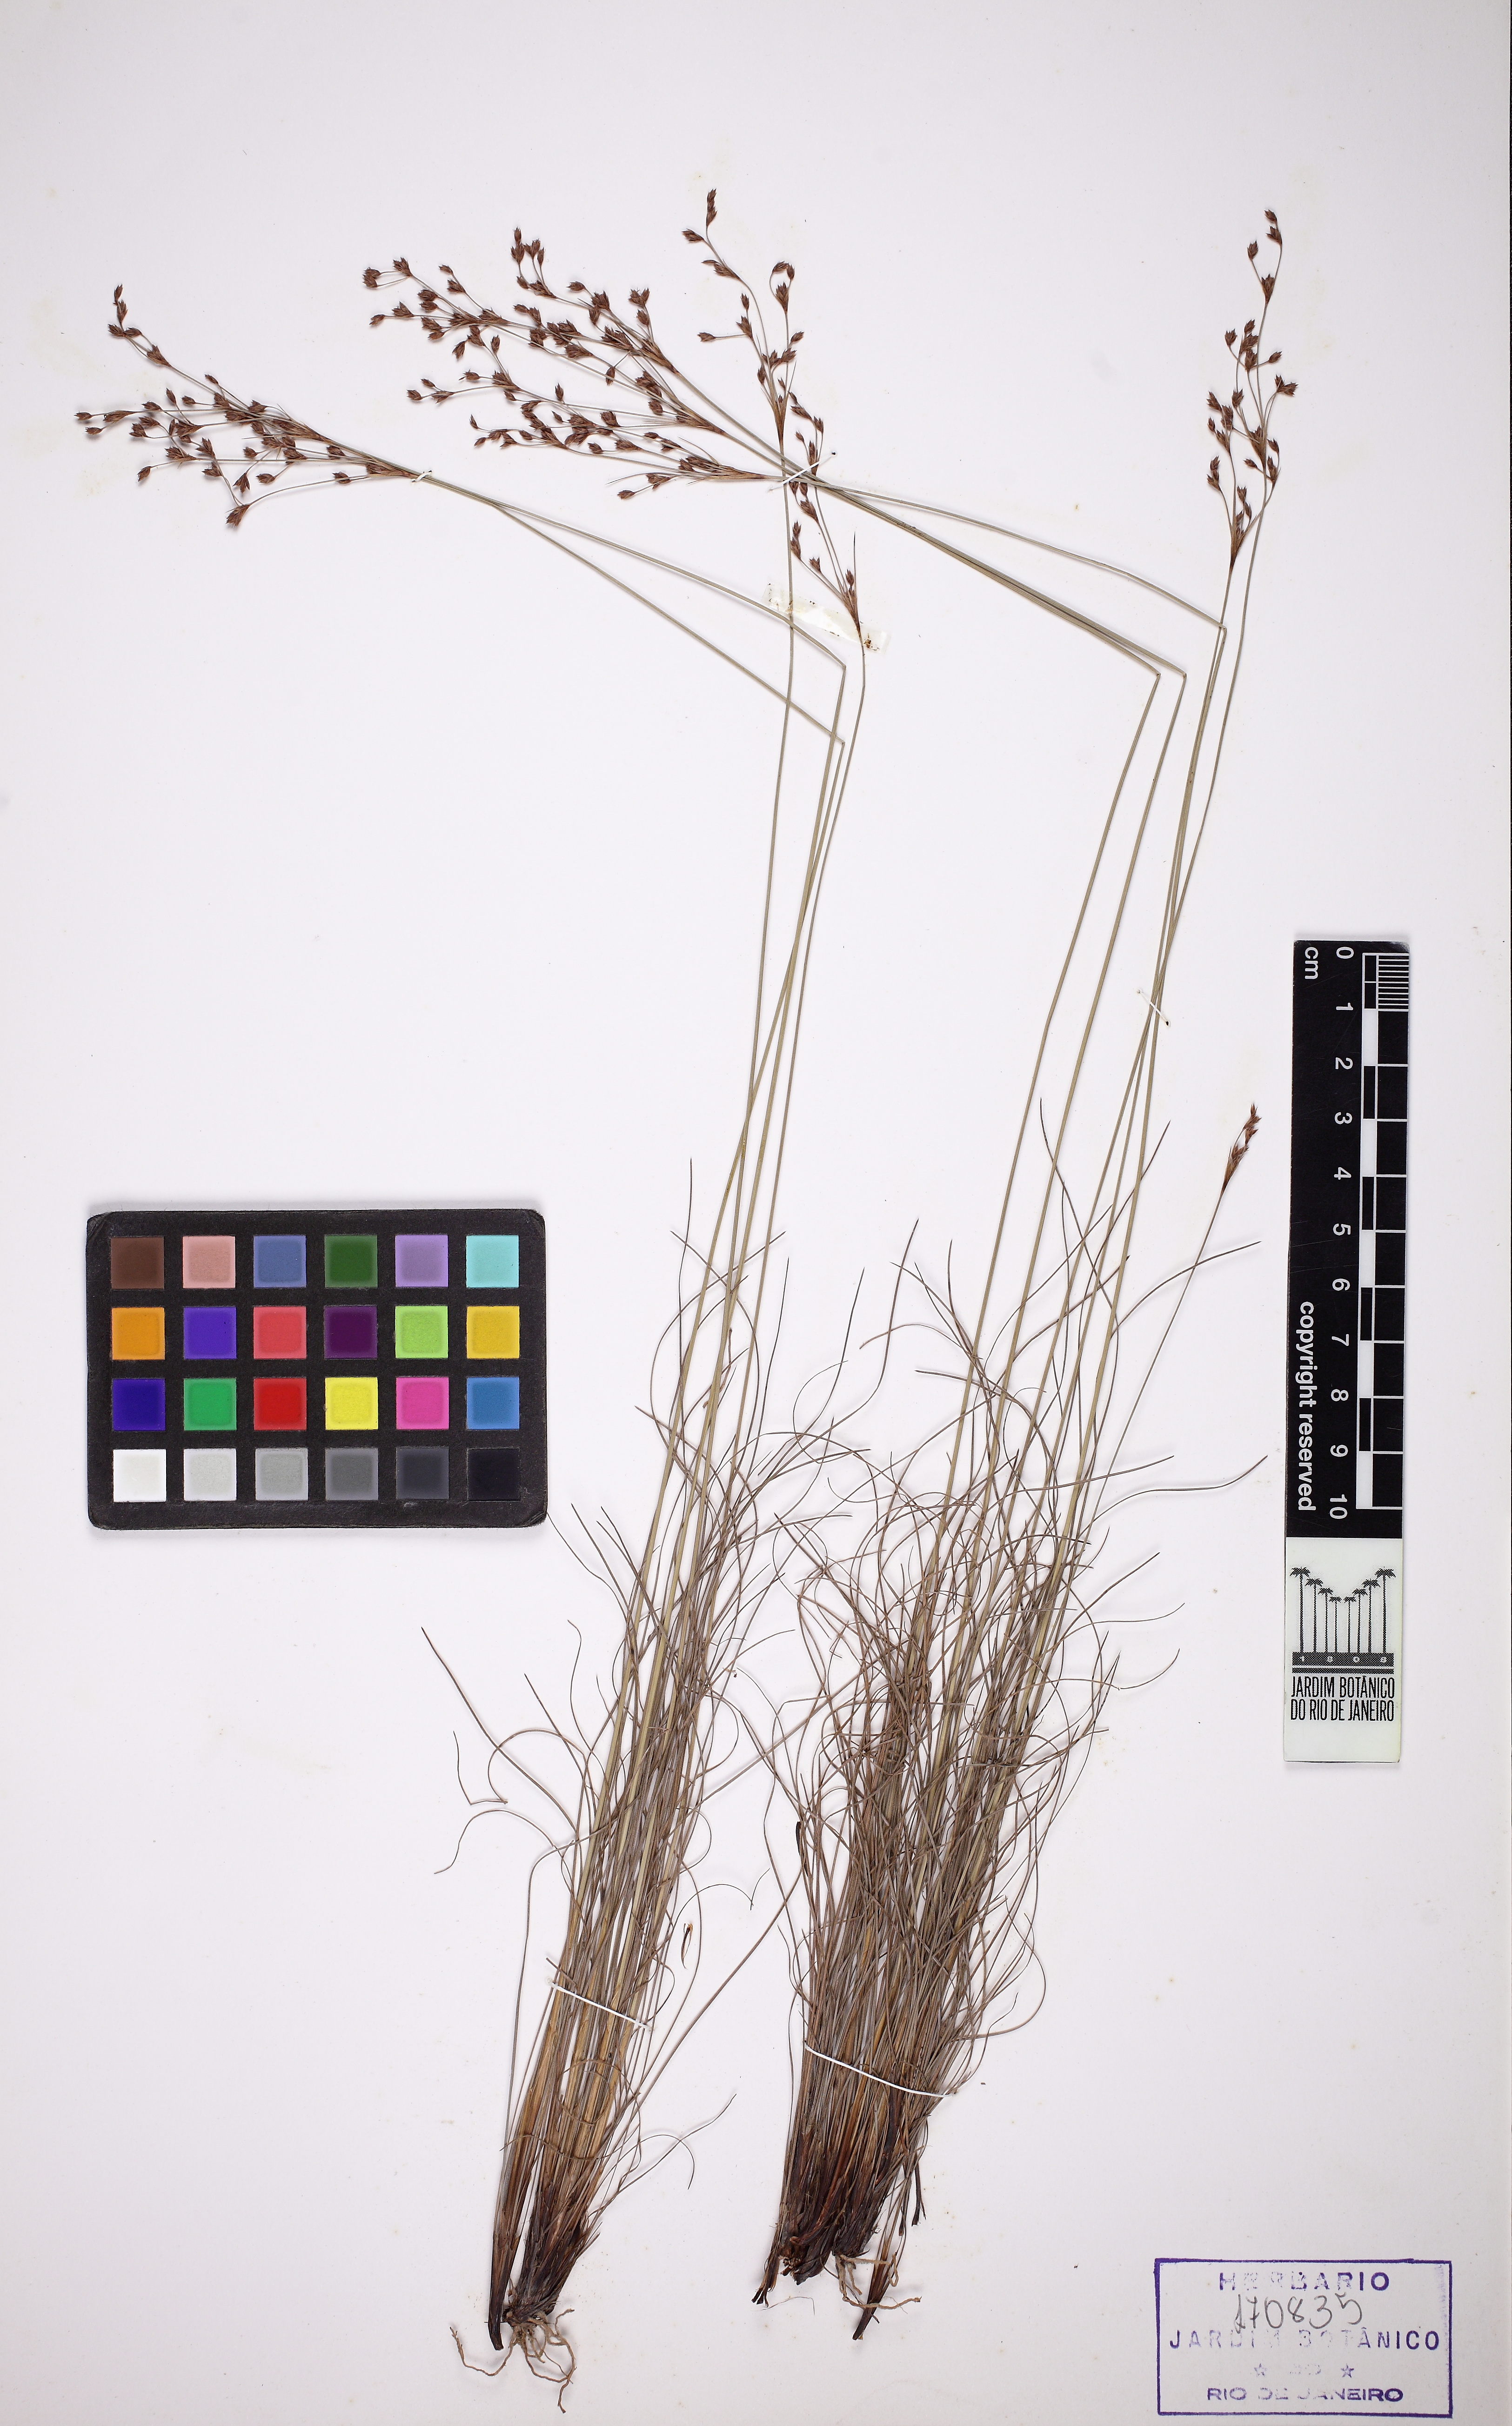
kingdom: Plantae
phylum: Tracheophyta
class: Liliopsida
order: Poales
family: Cyperaceae
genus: Bulbostylis
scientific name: Bulbostylis juncoides
